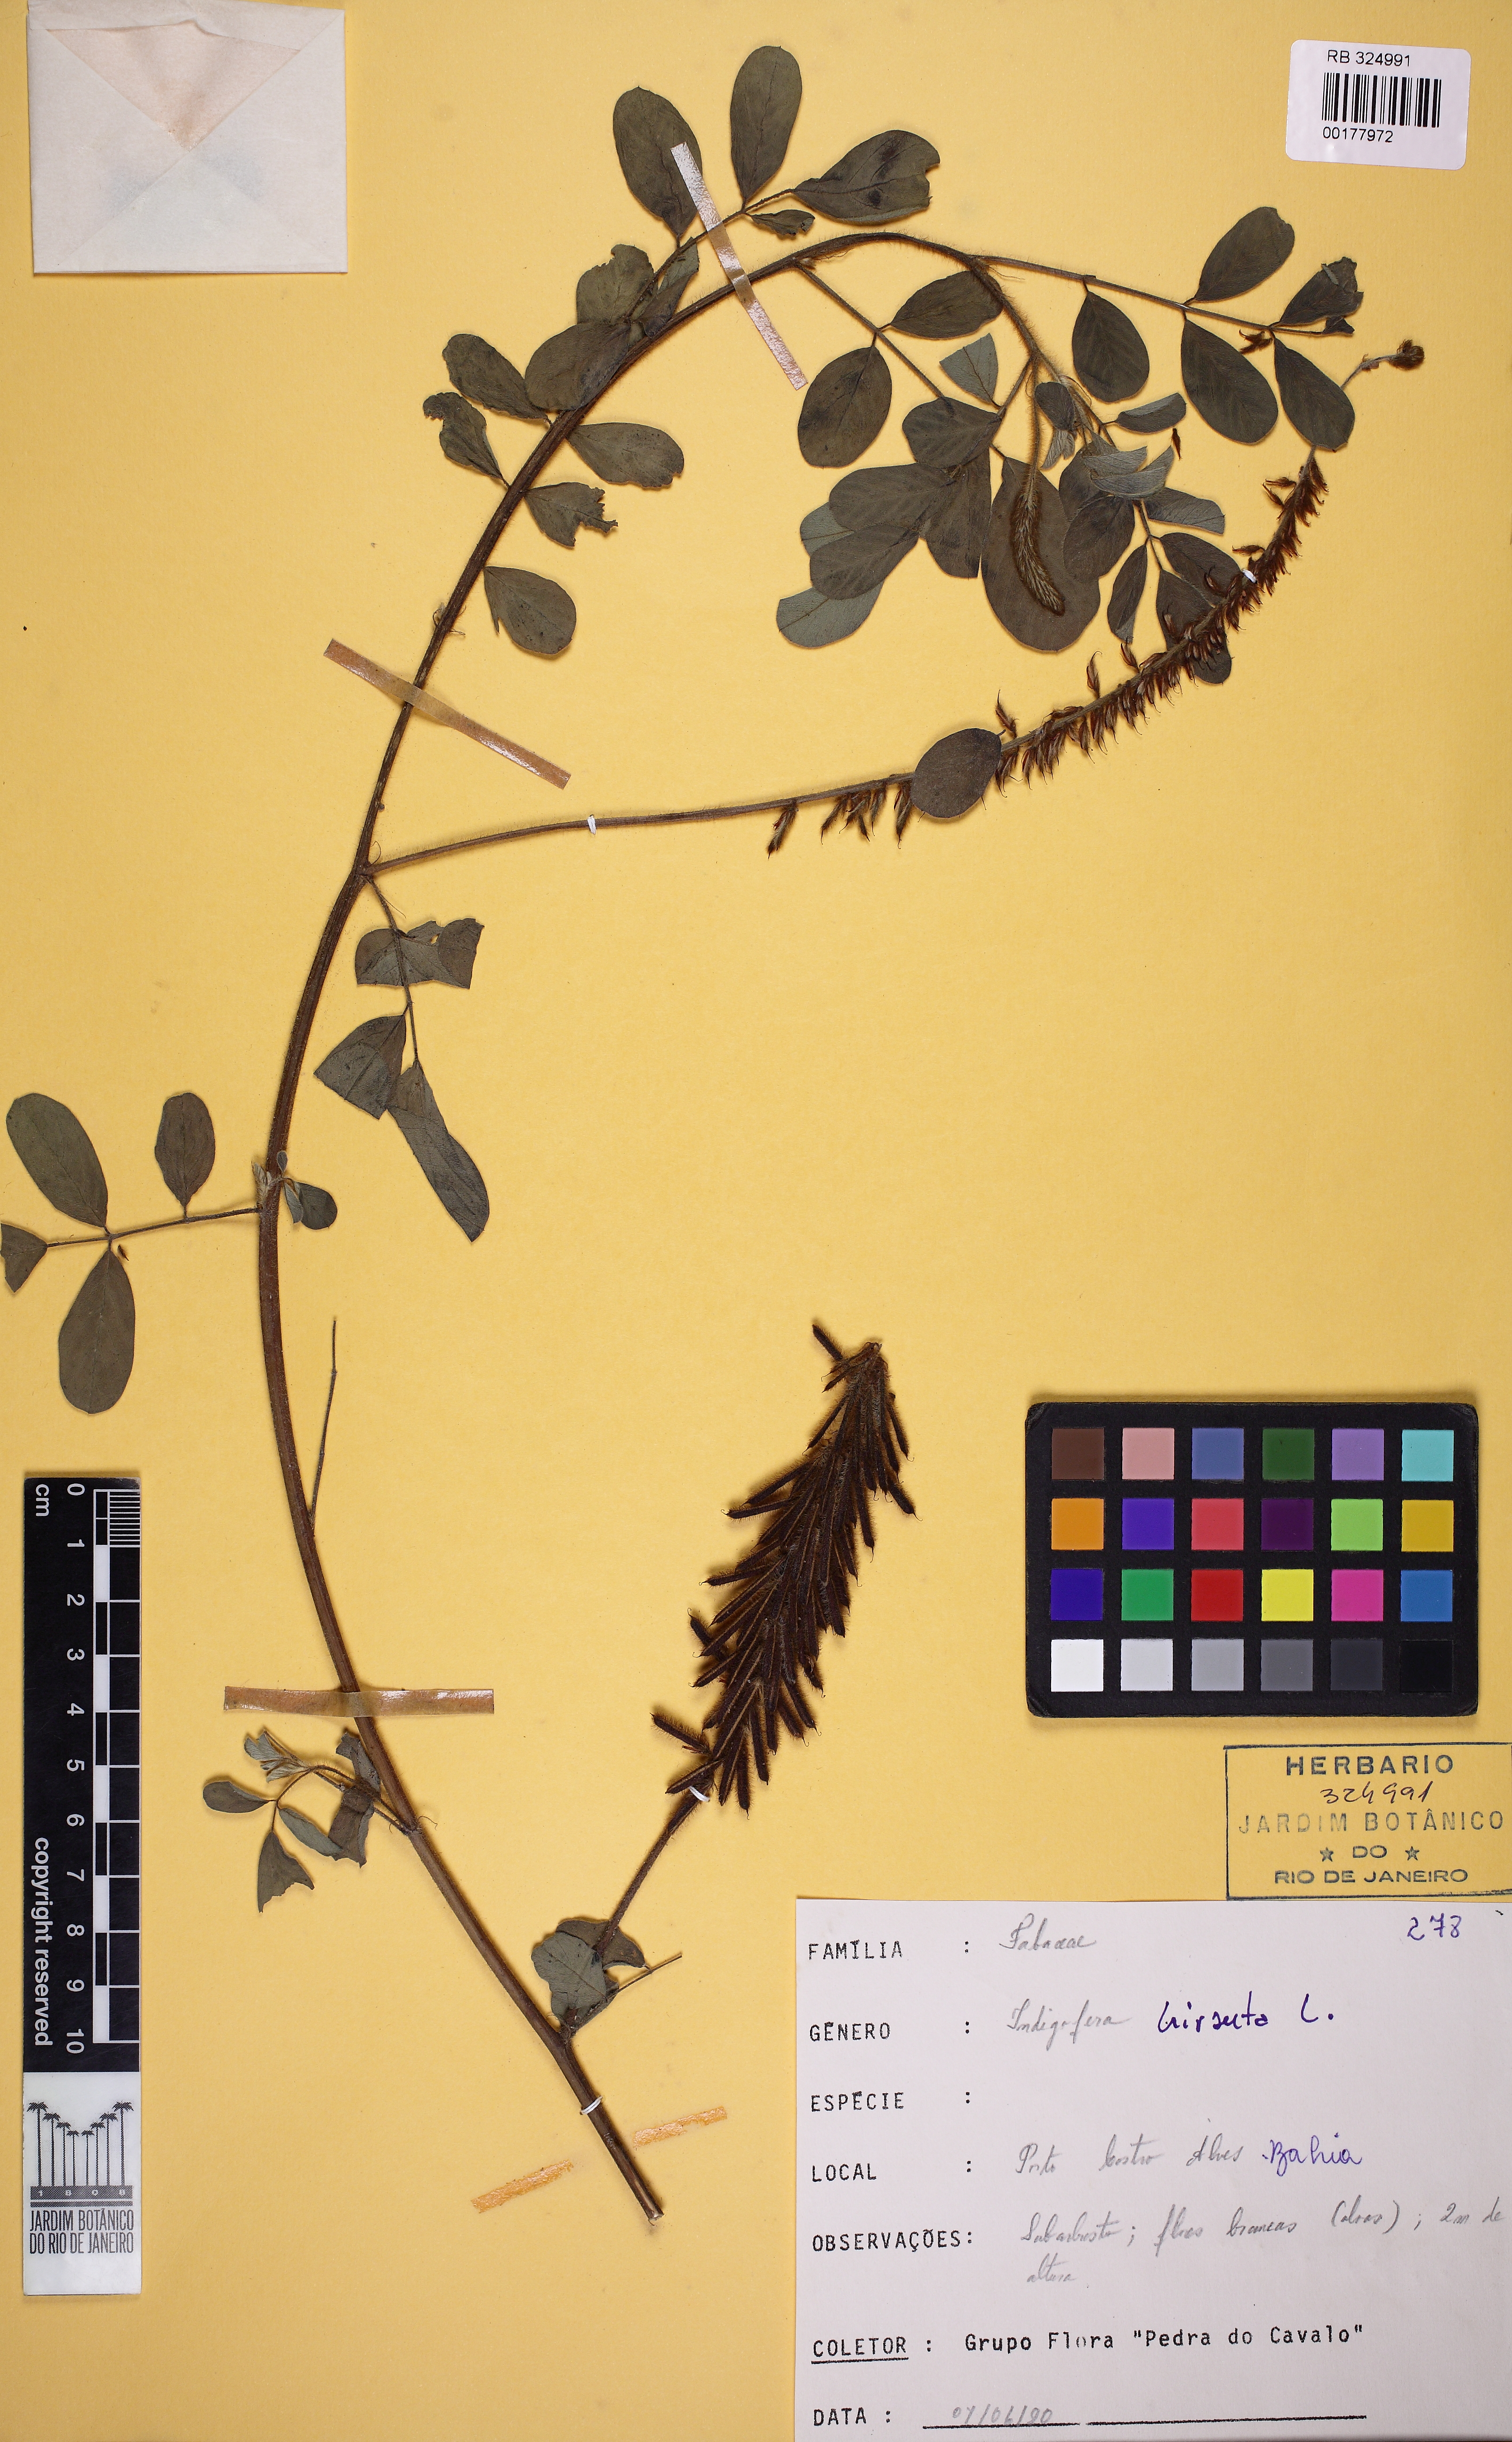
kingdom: Plantae
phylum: Tracheophyta
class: Magnoliopsida
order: Fabales
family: Fabaceae
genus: Indigofera
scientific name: Indigofera hirsuta
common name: Hairy indigo
